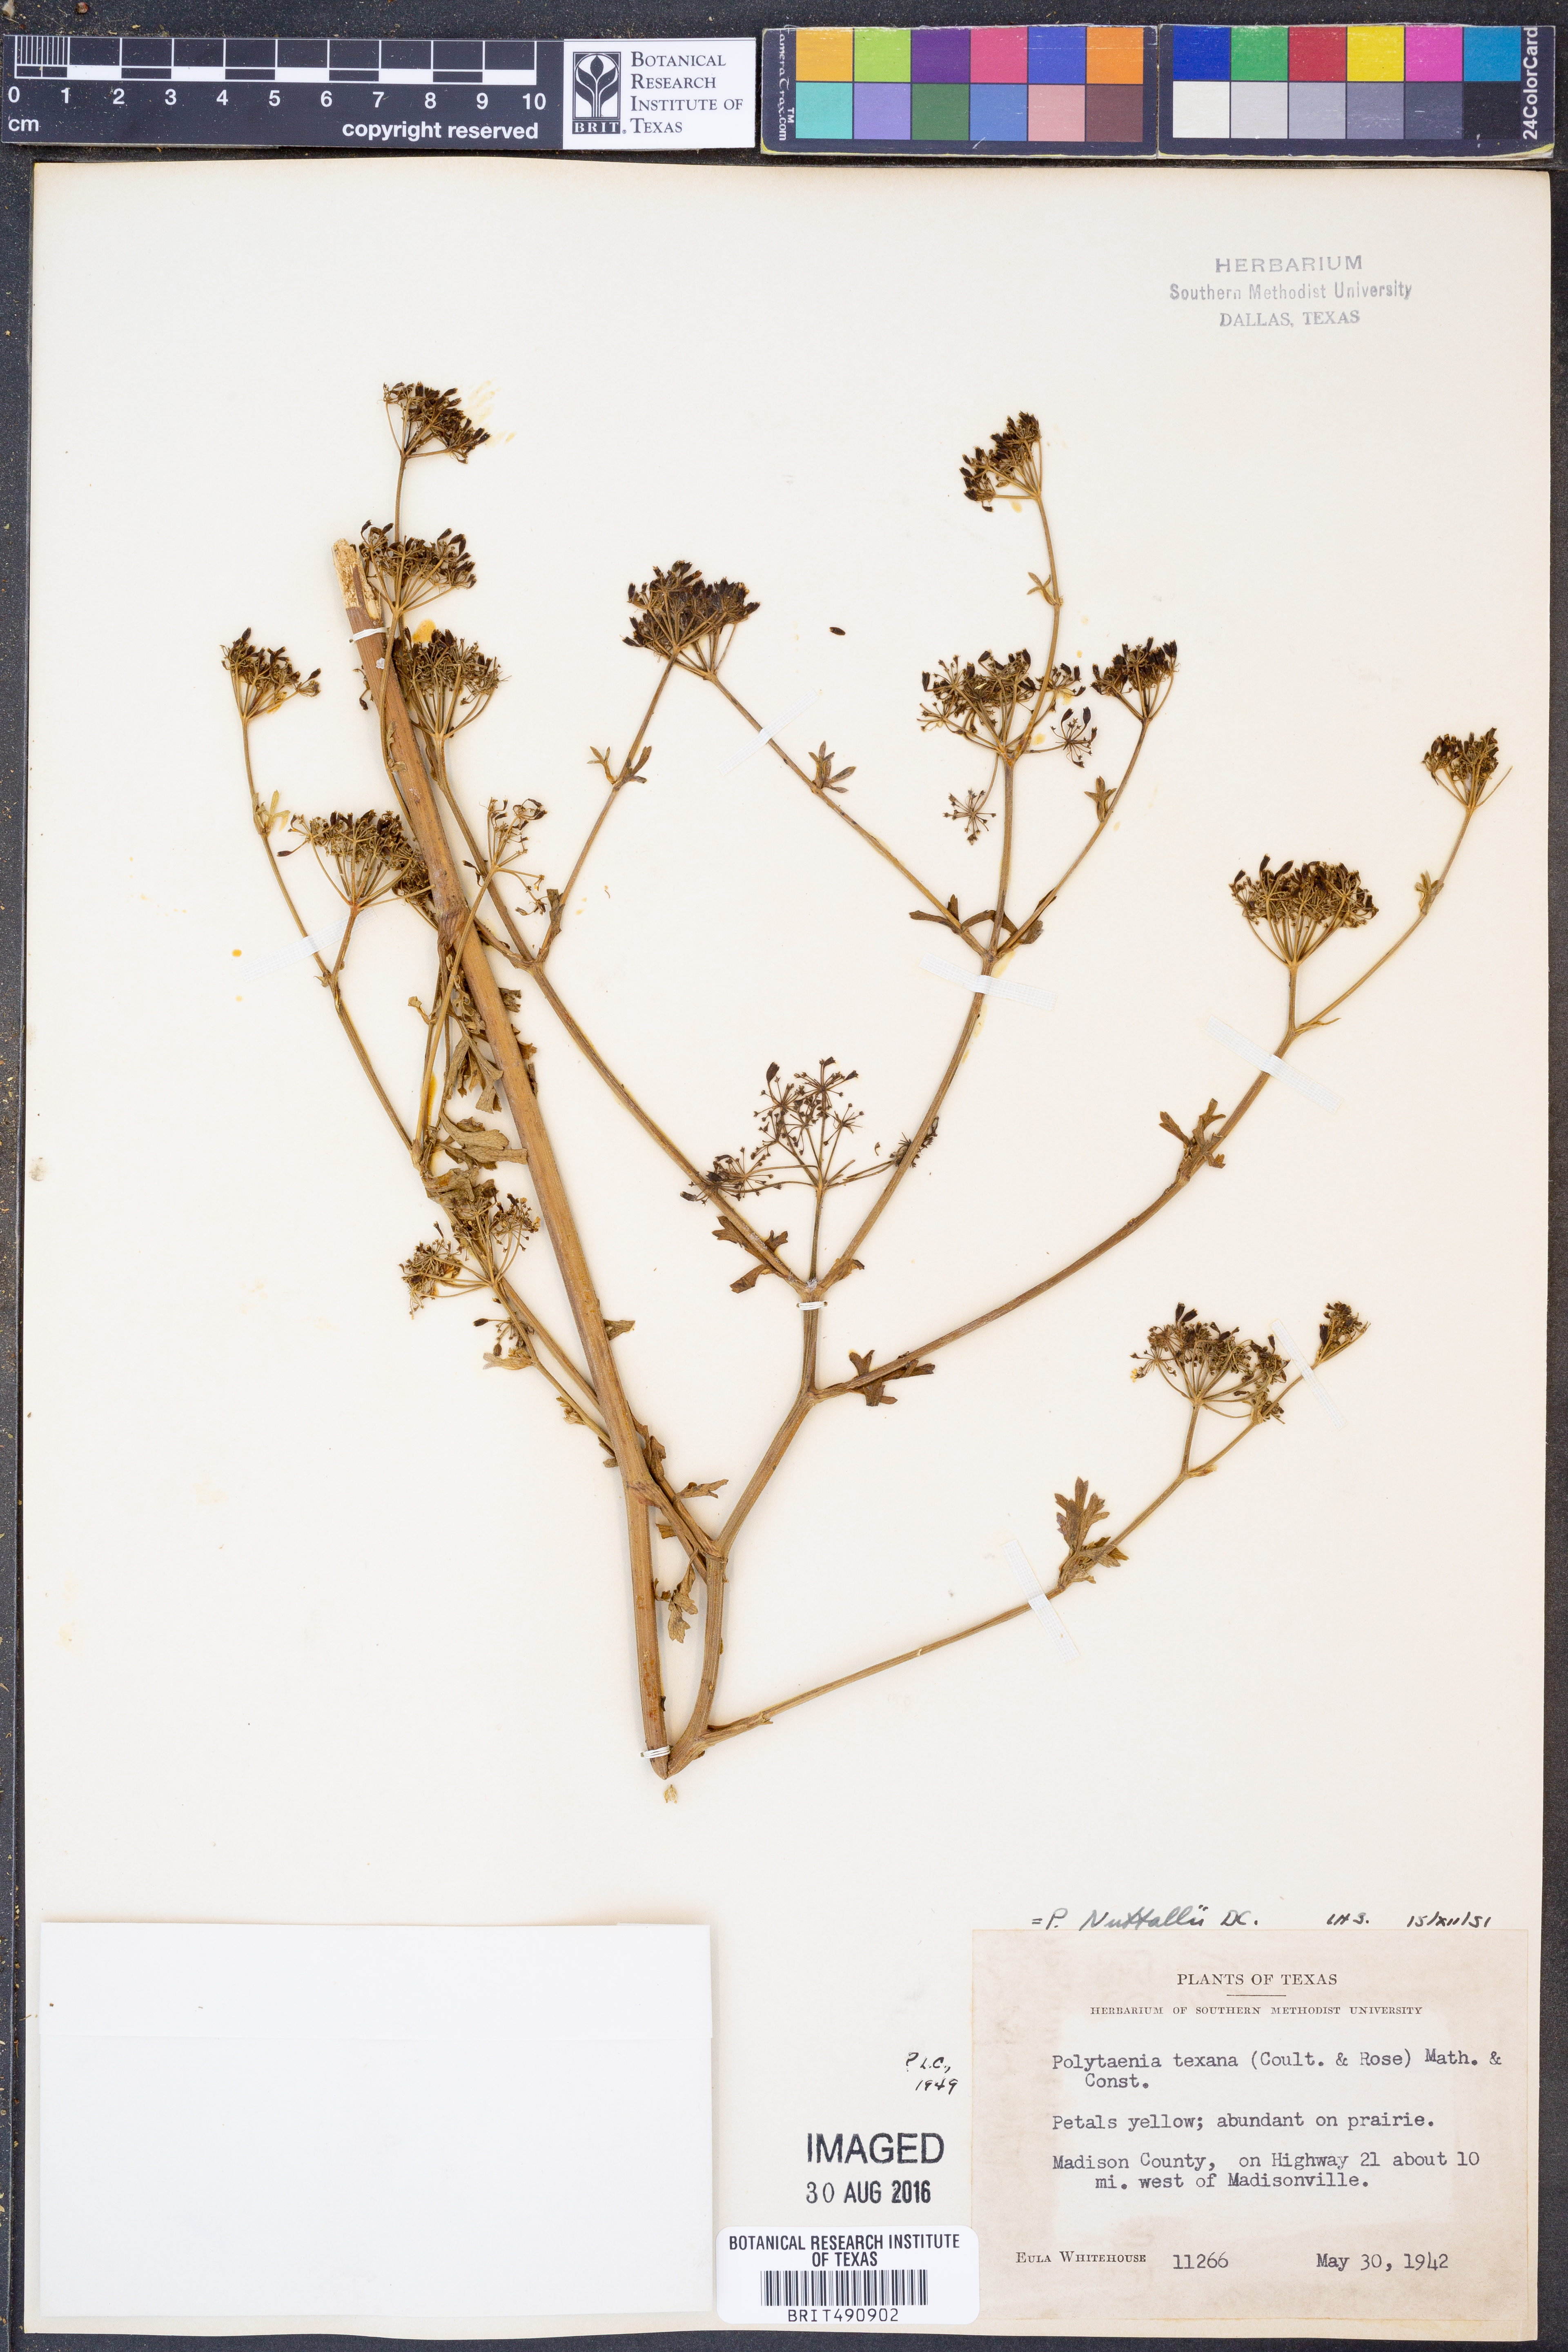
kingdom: Plantae
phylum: Tracheophyta
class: Magnoliopsida
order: Apiales
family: Apiaceae
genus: Polytaenia
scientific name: Polytaenia nuttallii
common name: Prairie-parsley
